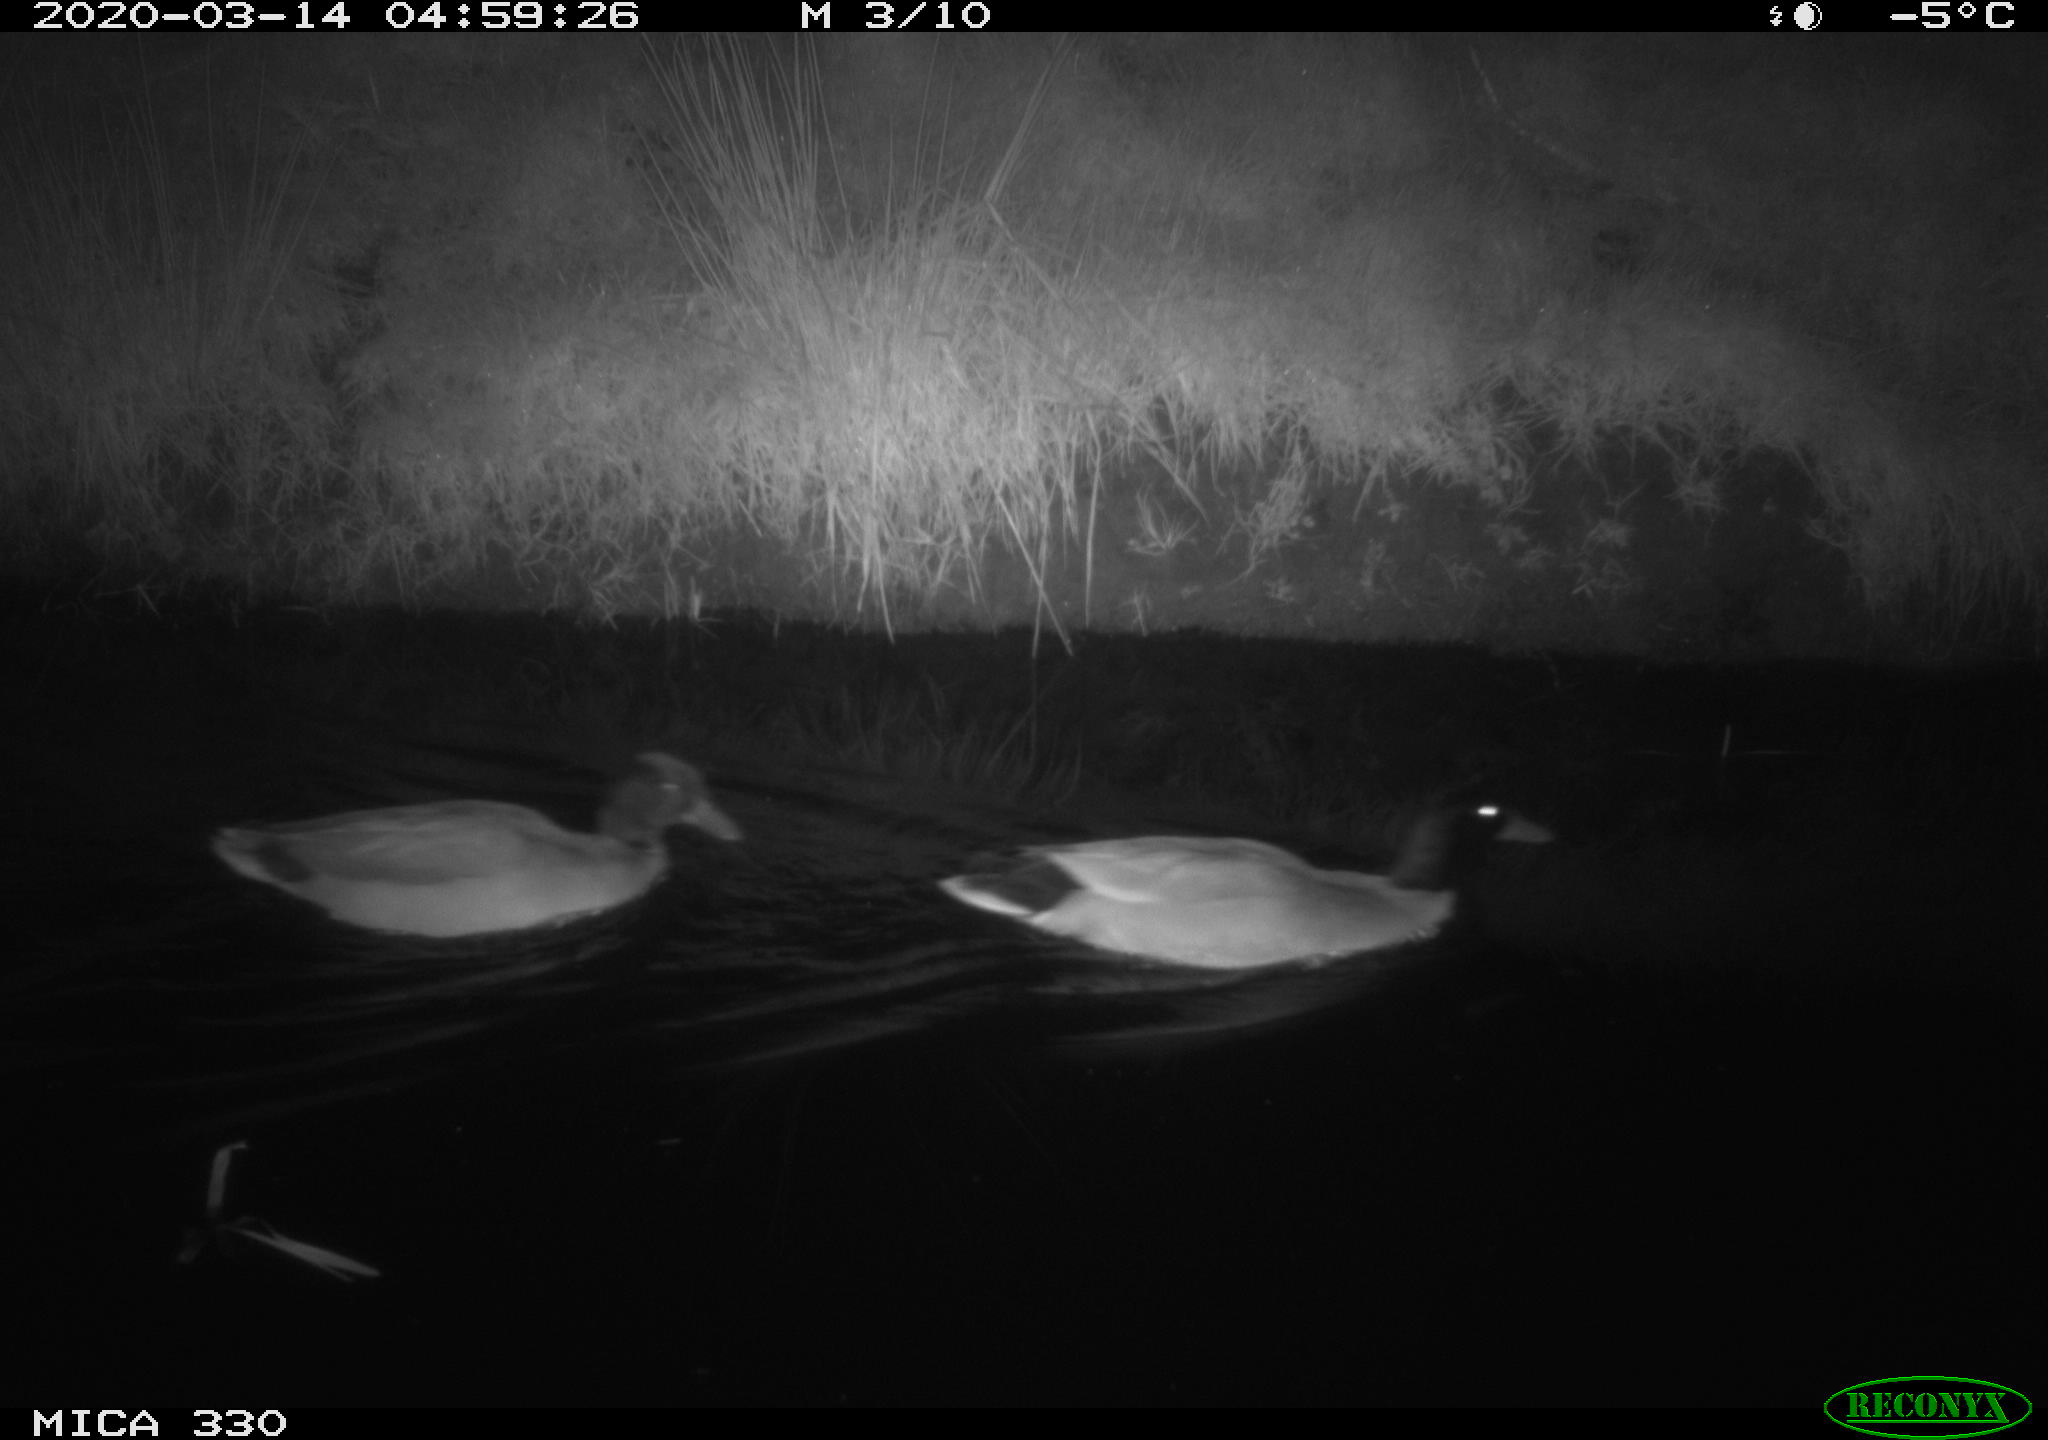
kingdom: Animalia
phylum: Chordata
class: Aves
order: Anseriformes
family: Anatidae
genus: Anas
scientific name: Anas platyrhynchos
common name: Mallard
